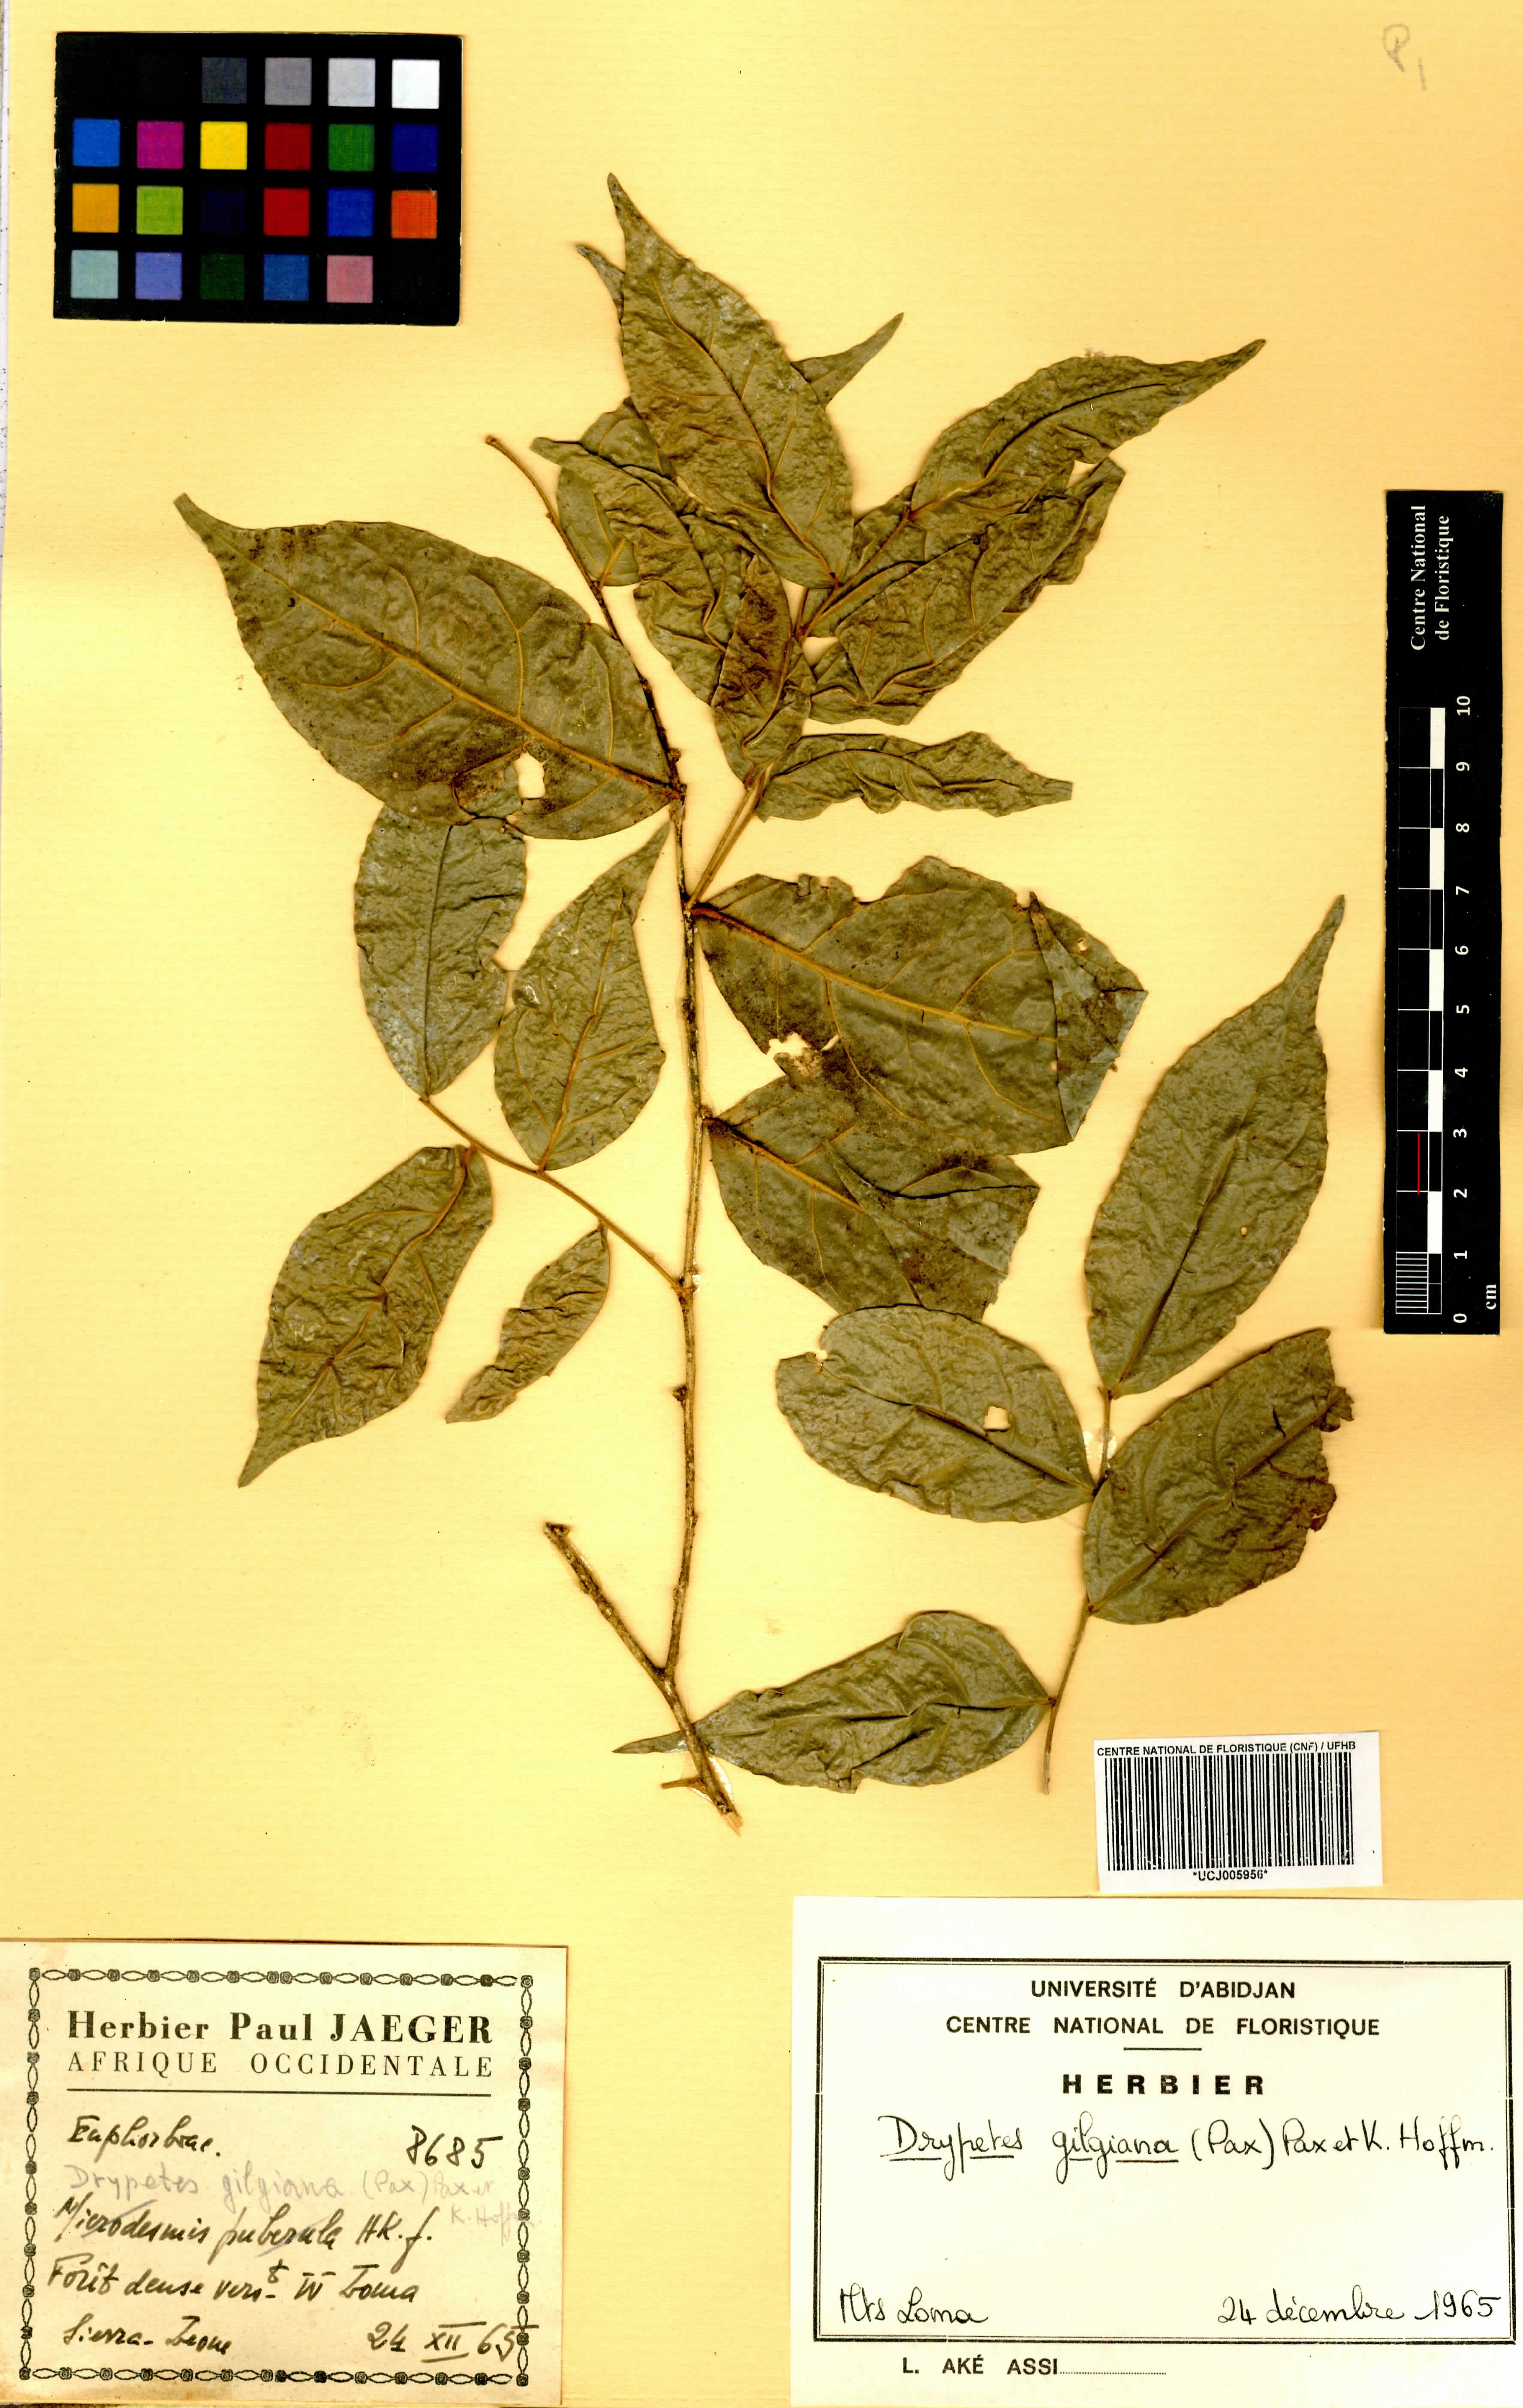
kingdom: Plantae
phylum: Tracheophyta
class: Magnoliopsida
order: Malpighiales
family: Putranjivaceae
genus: Drypetes
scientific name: Drypetes gilgiana
